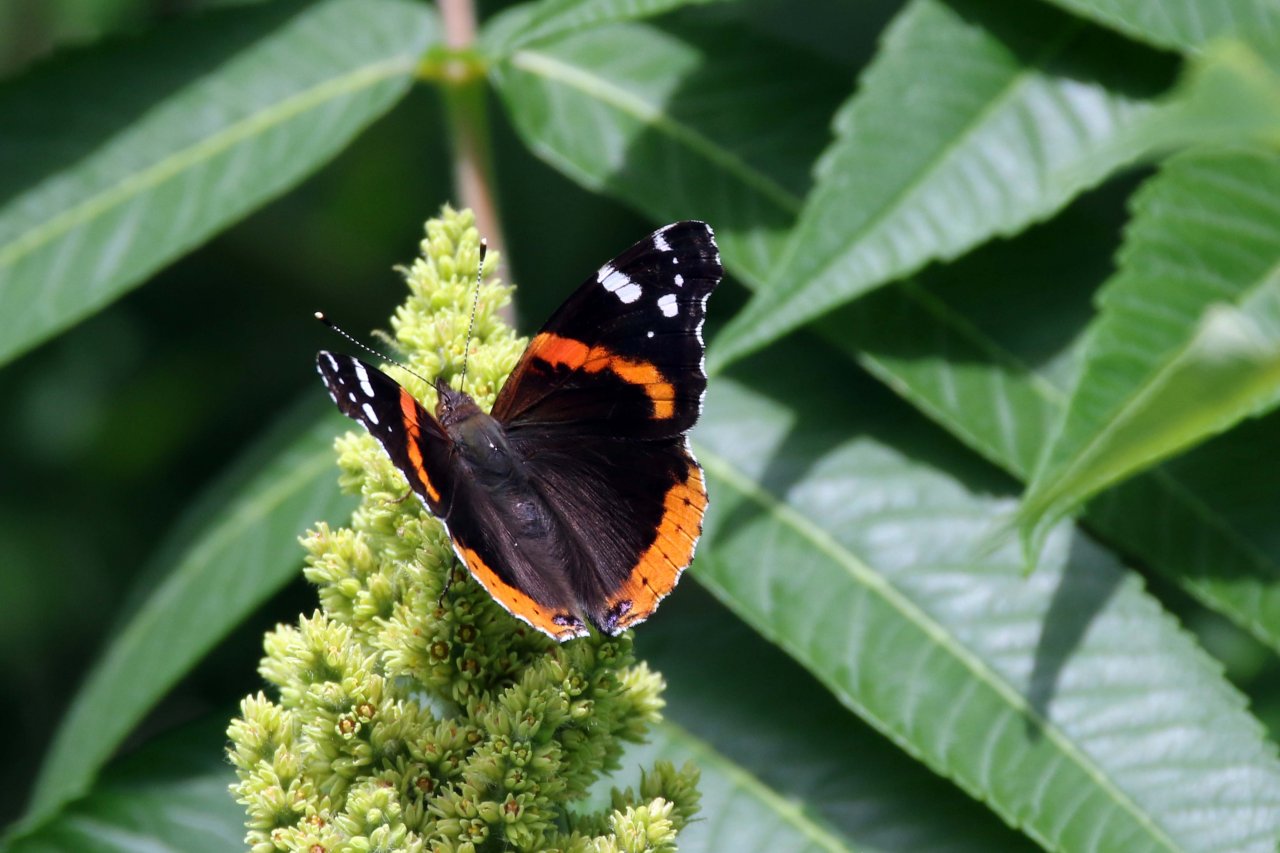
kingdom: Animalia
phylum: Arthropoda
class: Insecta
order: Lepidoptera
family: Nymphalidae
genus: Vanessa
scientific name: Vanessa atalanta
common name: Red Admiral
